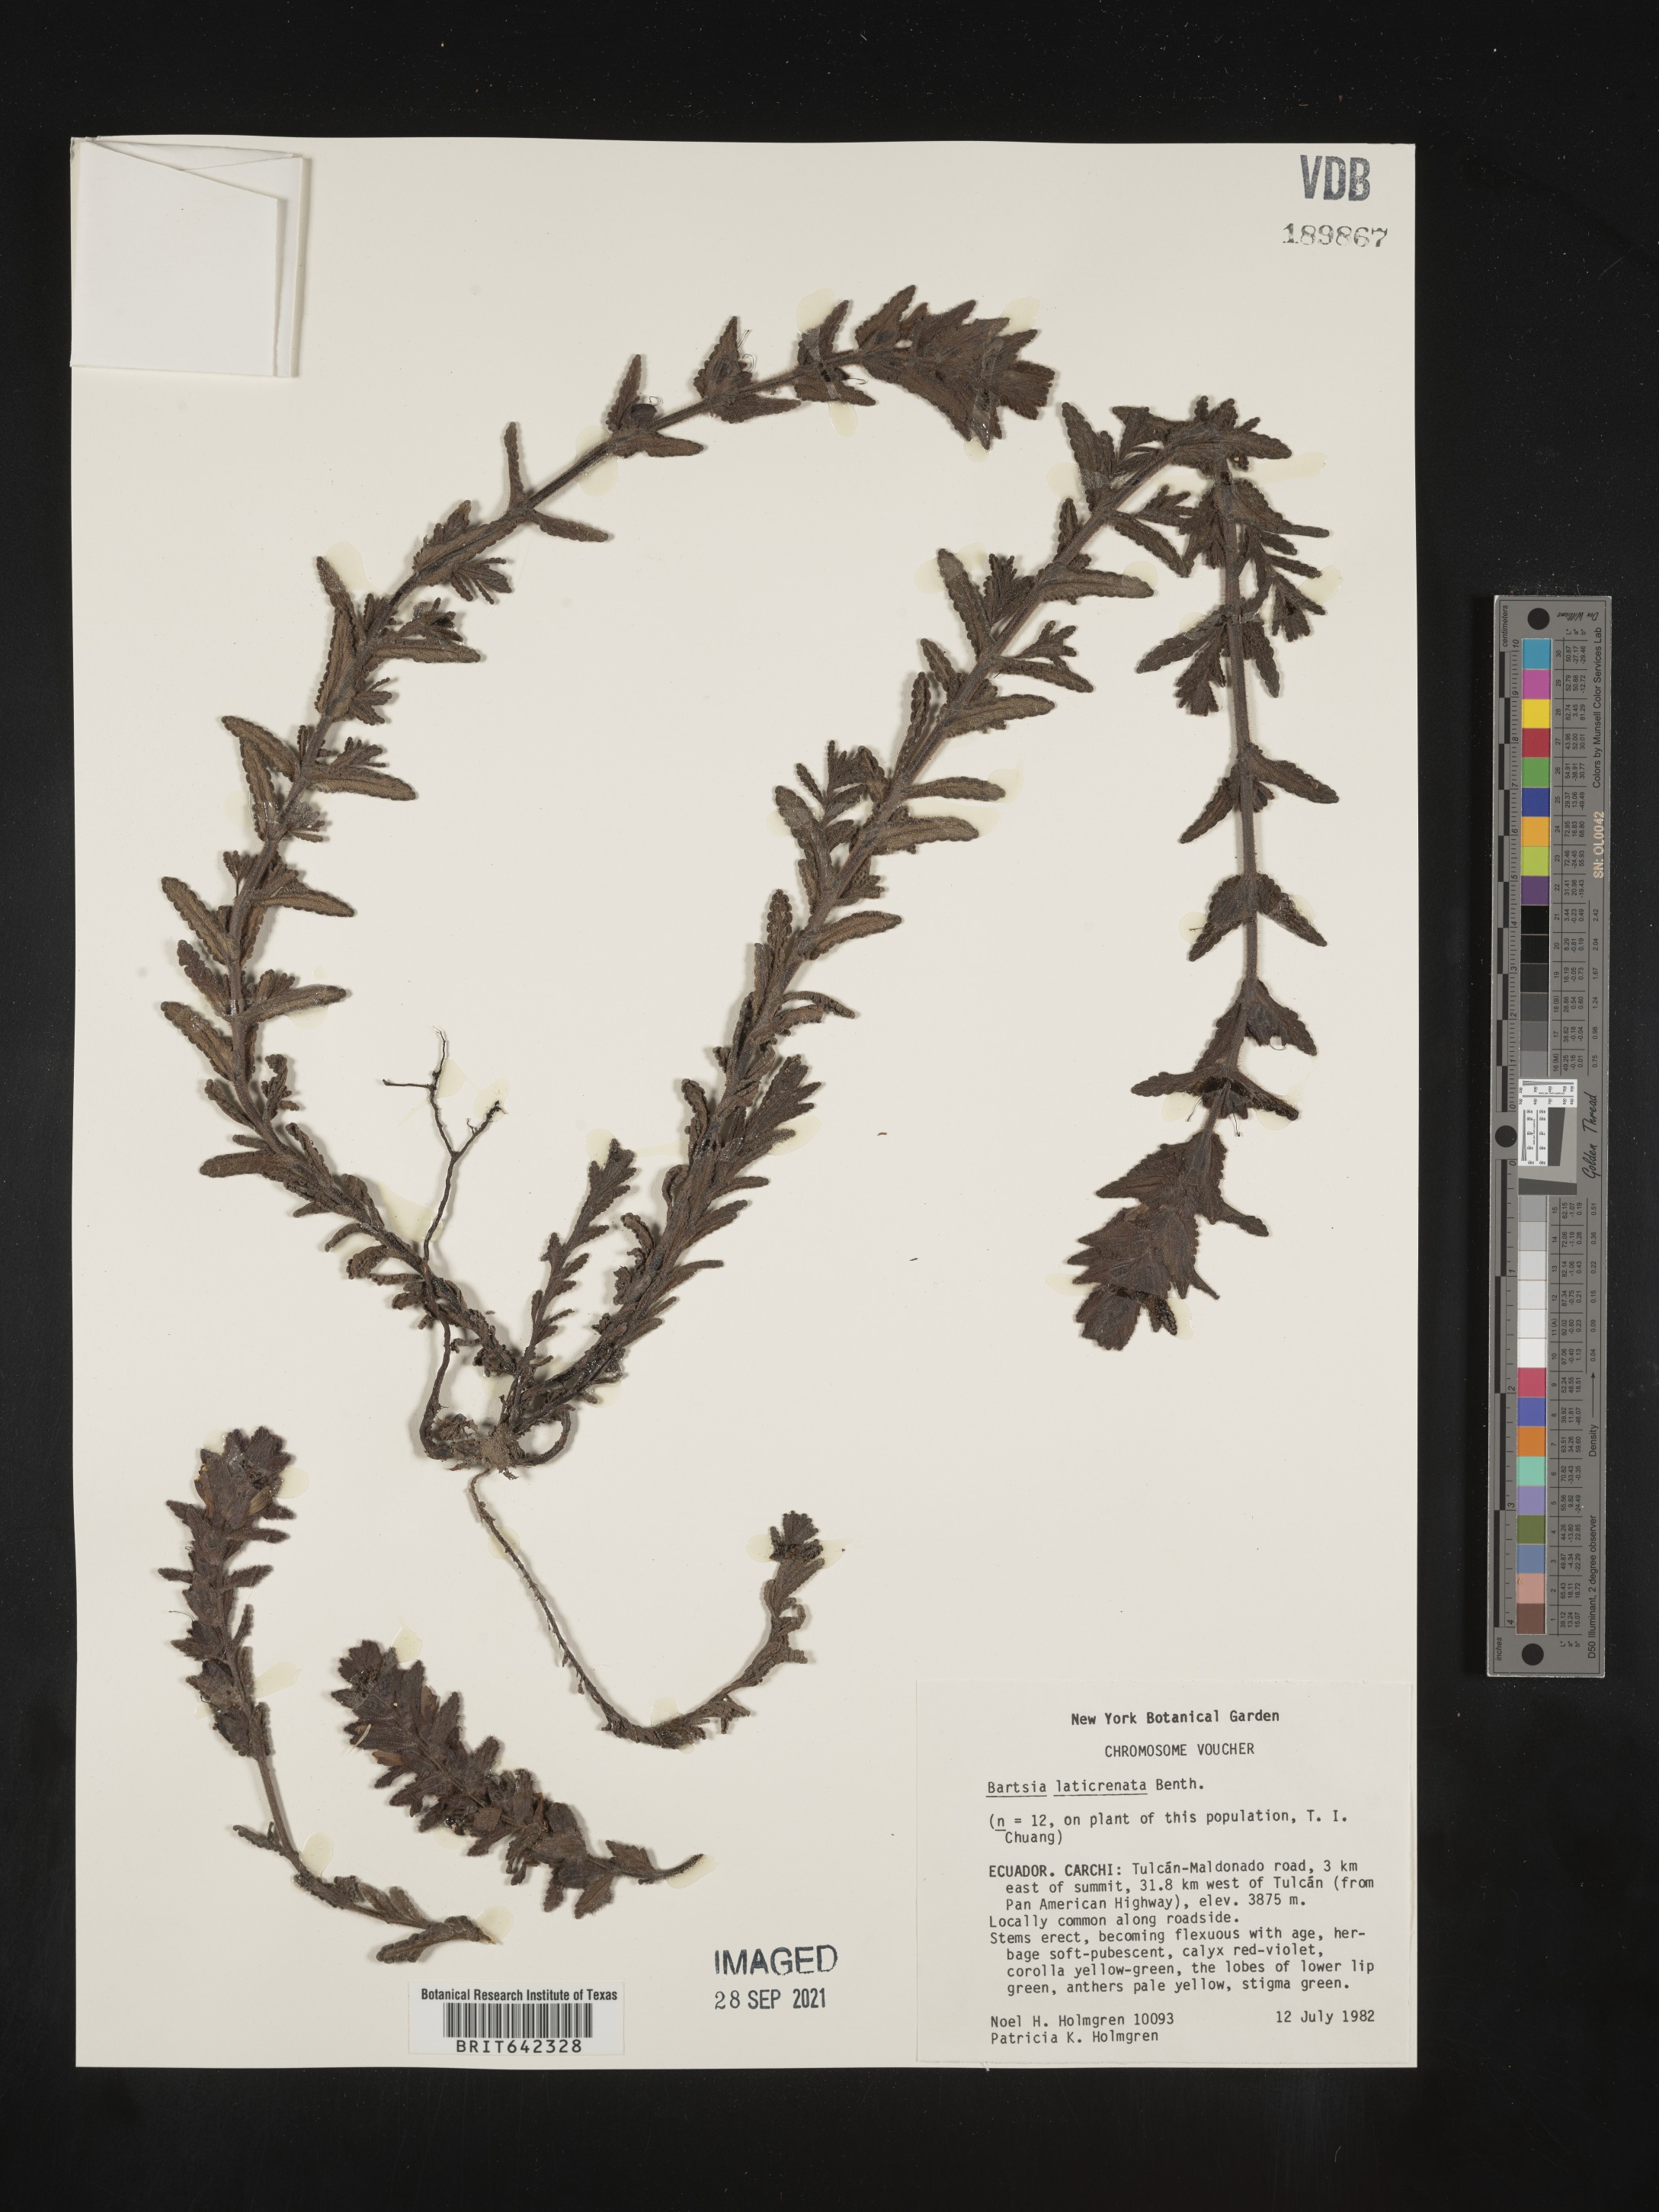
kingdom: Plantae
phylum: Tracheophyta
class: Magnoliopsida
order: Lamiales
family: Orobanchaceae
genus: Bartsia
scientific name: Bartsia
